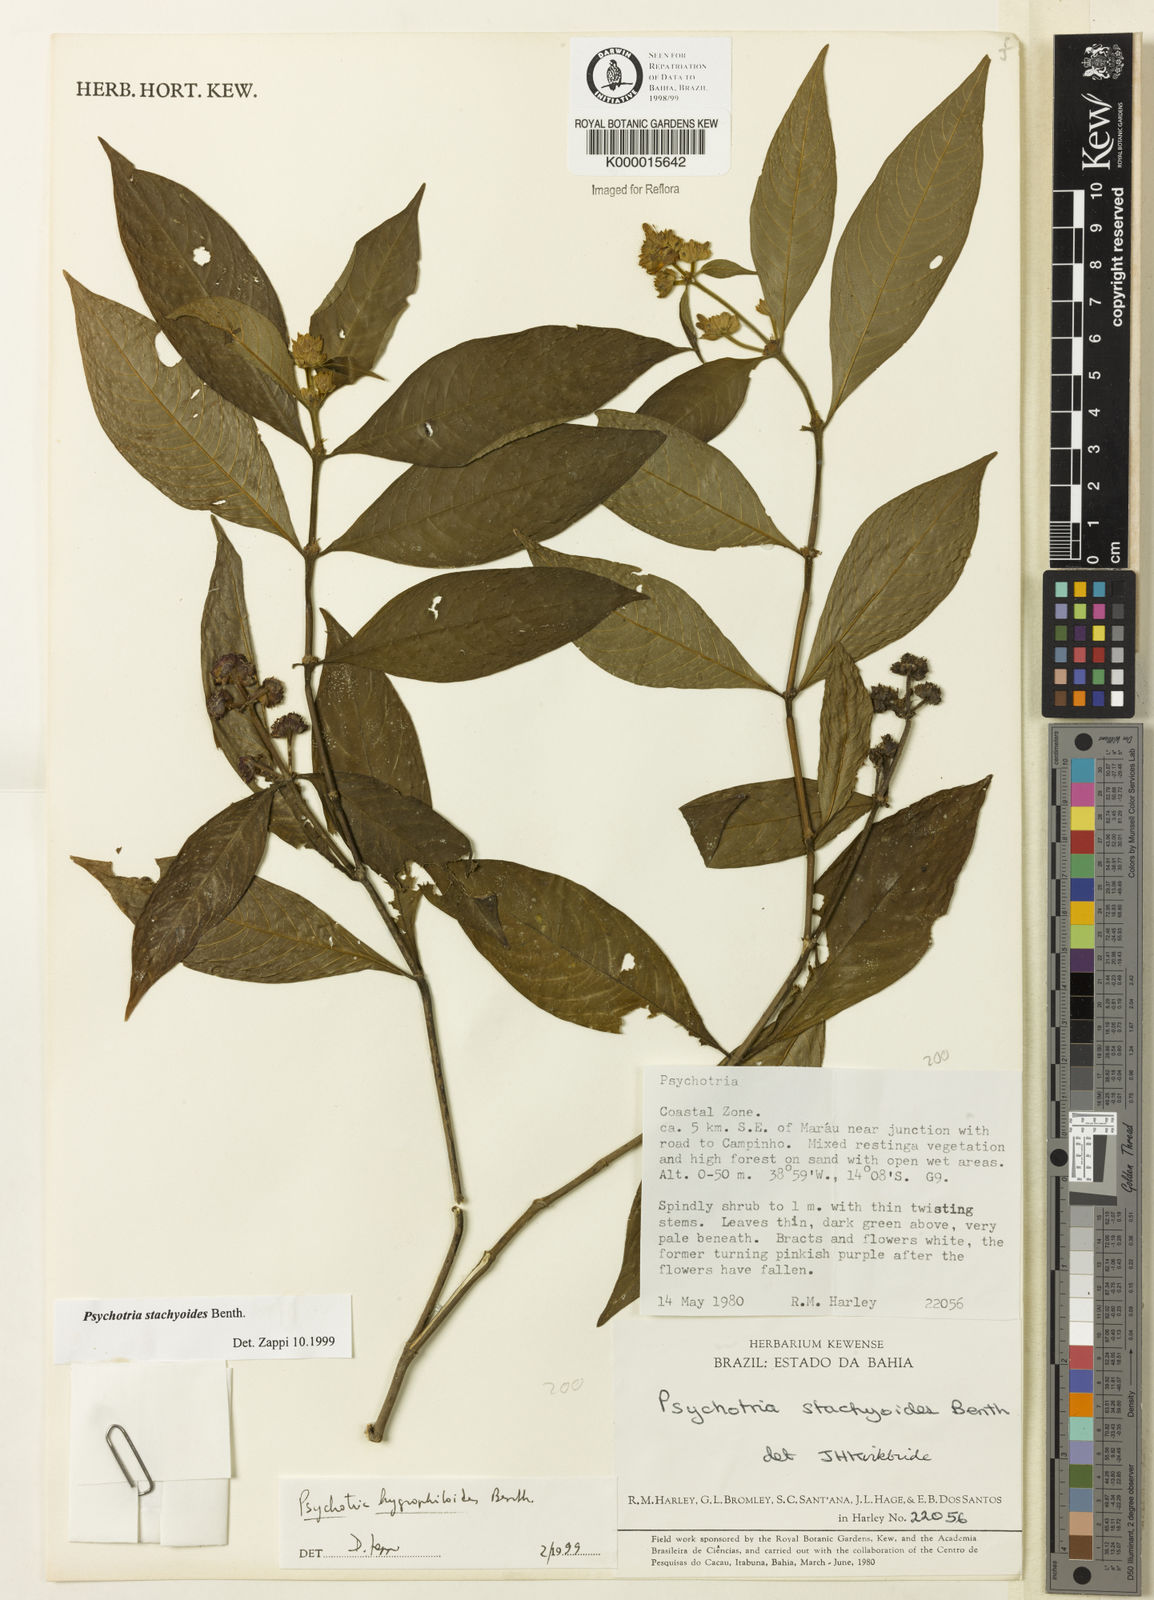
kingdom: Plantae
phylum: Tracheophyta
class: Magnoliopsida
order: Gentianales
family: Rubiaceae
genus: Psychotria
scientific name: Psychotria stachyoides
